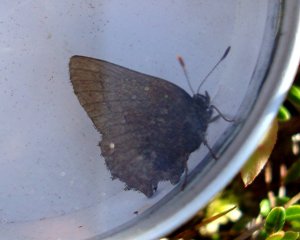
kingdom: Animalia
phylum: Arthropoda
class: Insecta
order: Lepidoptera
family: Lycaenidae
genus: Incisalia
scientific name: Incisalia irioides
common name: Brown Elfin
